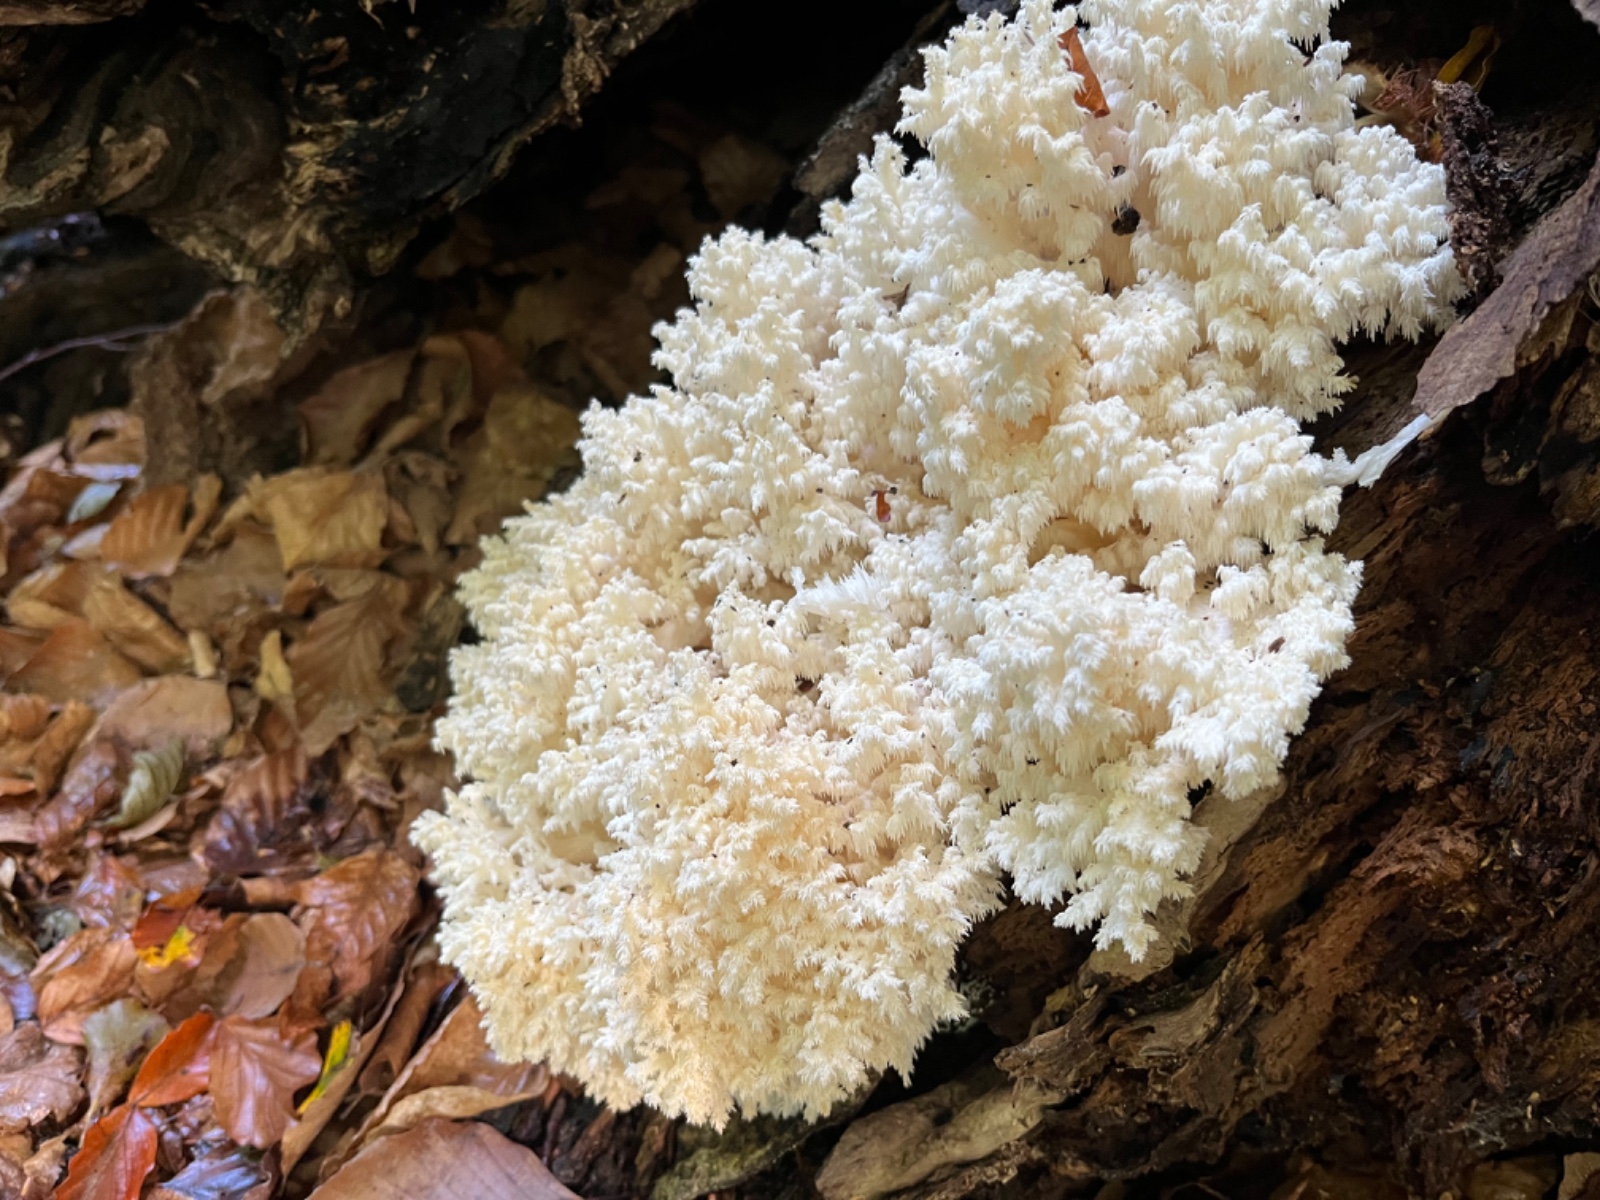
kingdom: Fungi
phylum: Basidiomycota
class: Agaricomycetes
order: Russulales
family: Hericiaceae
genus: Hericium
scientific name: Hericium coralloides
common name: koralpigsvamp
